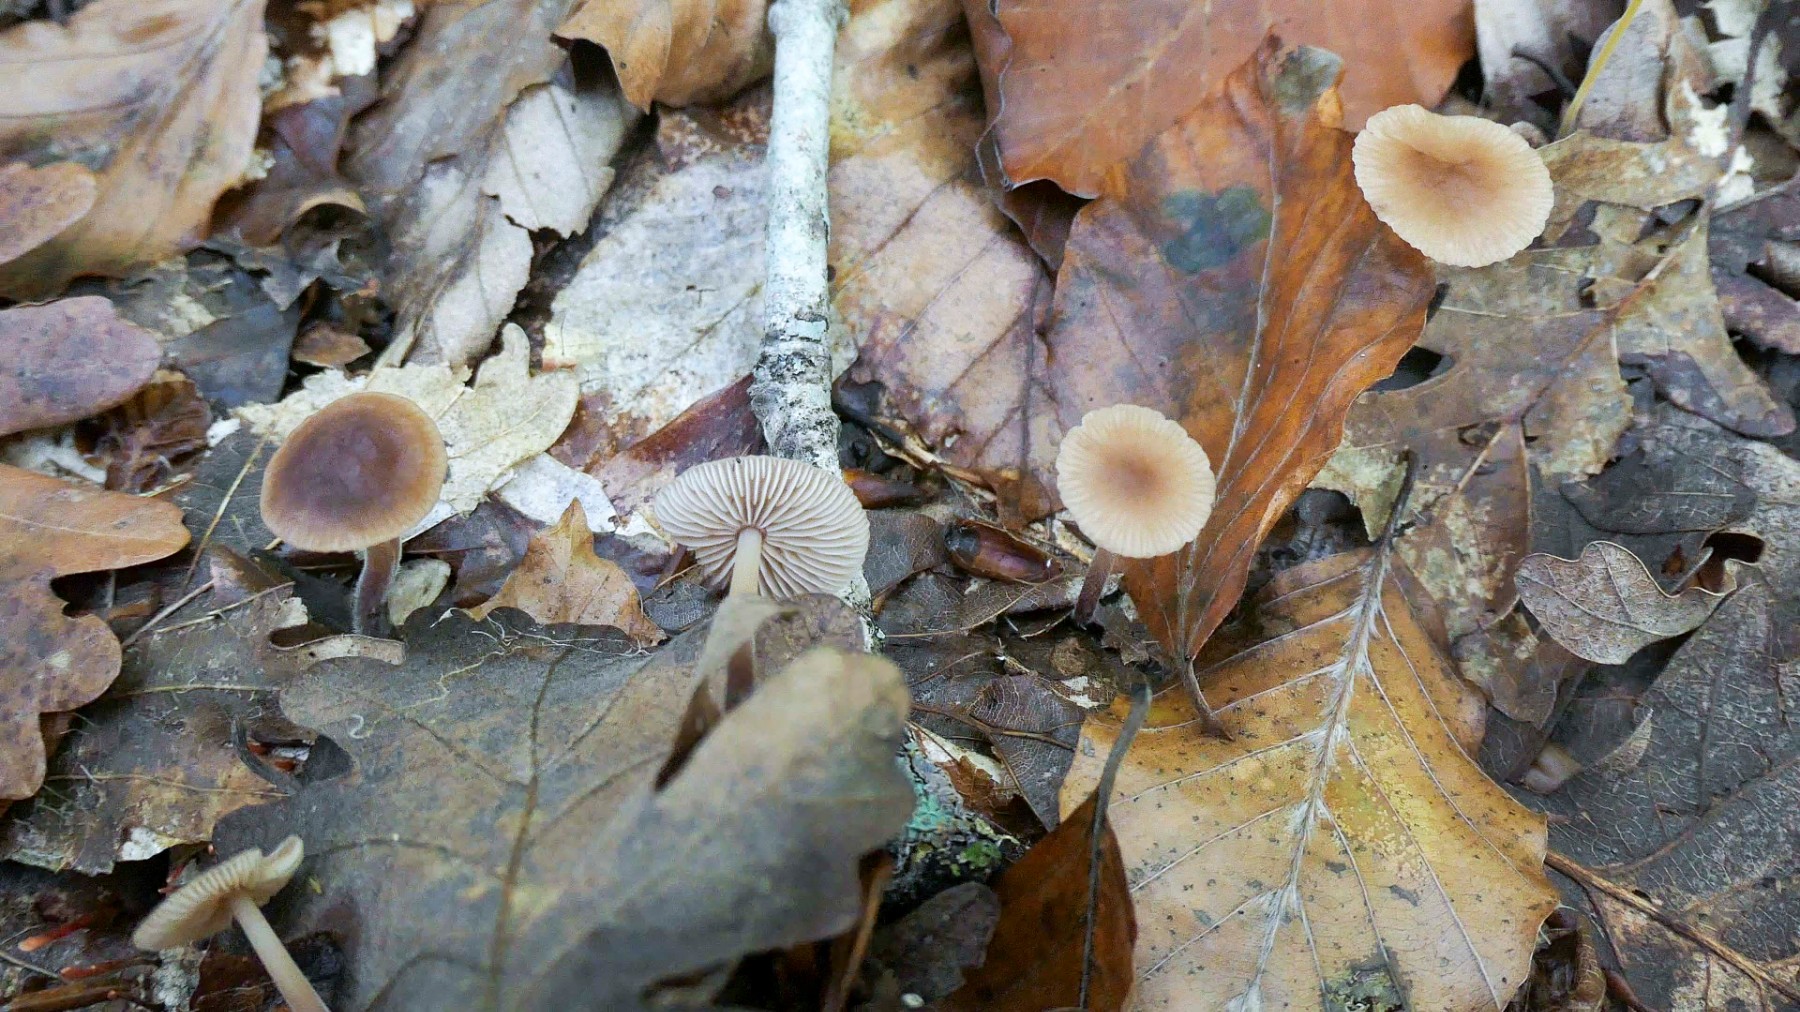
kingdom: Fungi
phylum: Basidiomycota
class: Agaricomycetes
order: Agaricales
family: Omphalotaceae
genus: Mycetinis
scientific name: Mycetinis querceus
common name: ege-løghat
